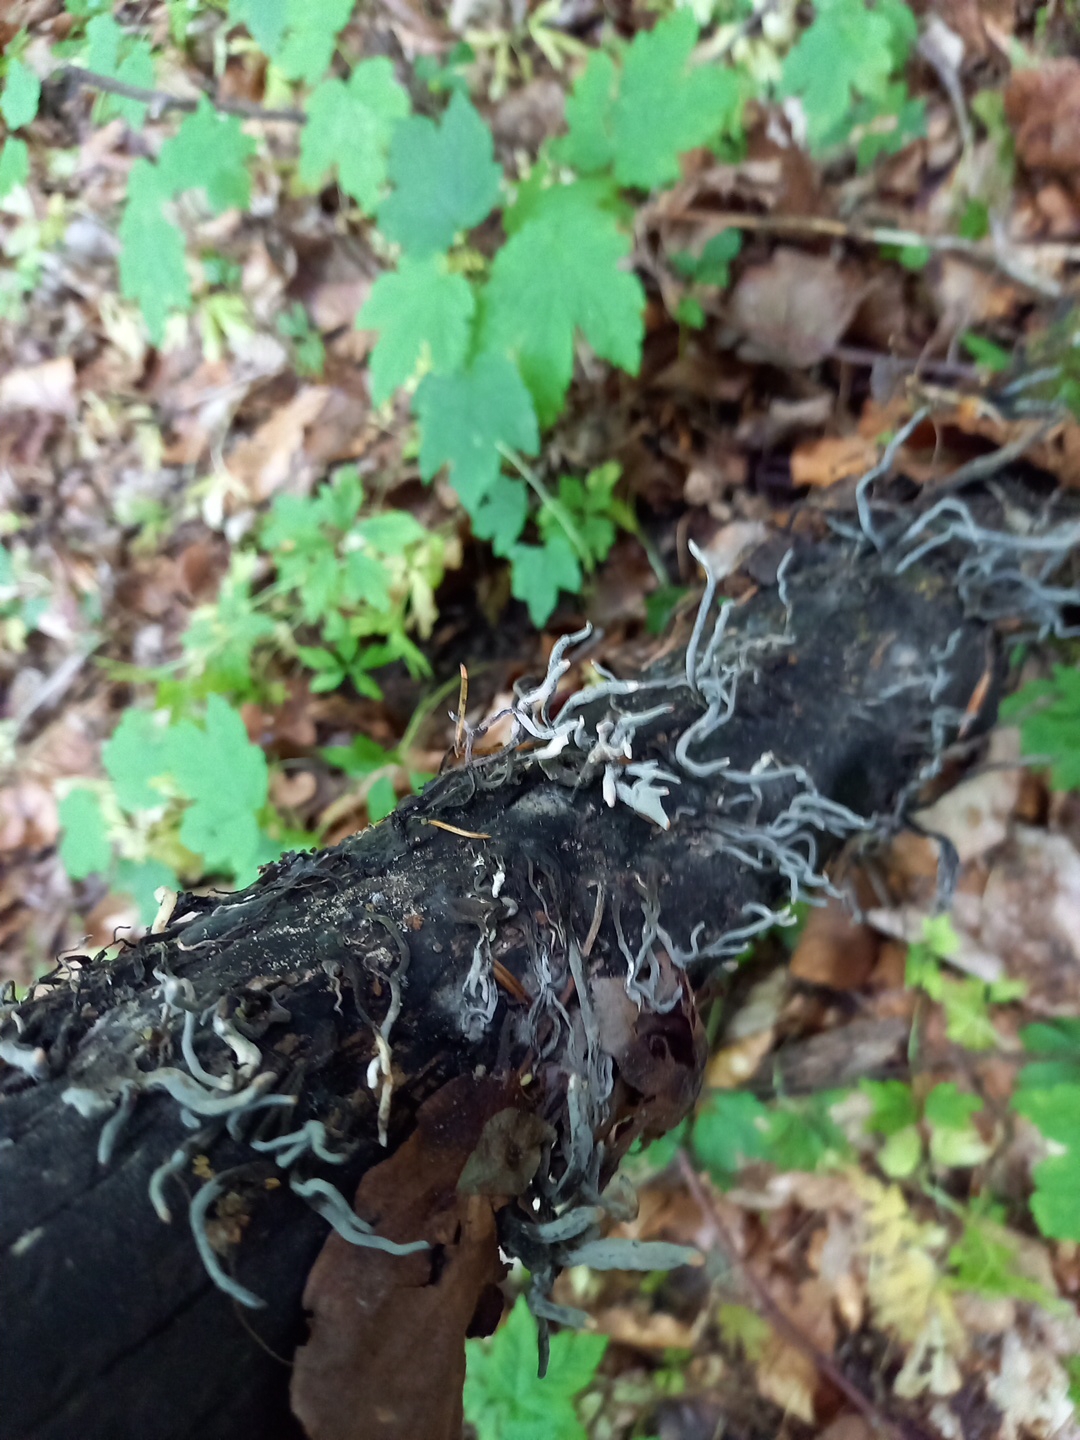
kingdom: Fungi
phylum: Ascomycota
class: Sordariomycetes
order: Xylariales
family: Xylariaceae
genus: Xylaria
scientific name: Xylaria longipes
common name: slank stødsvamp
